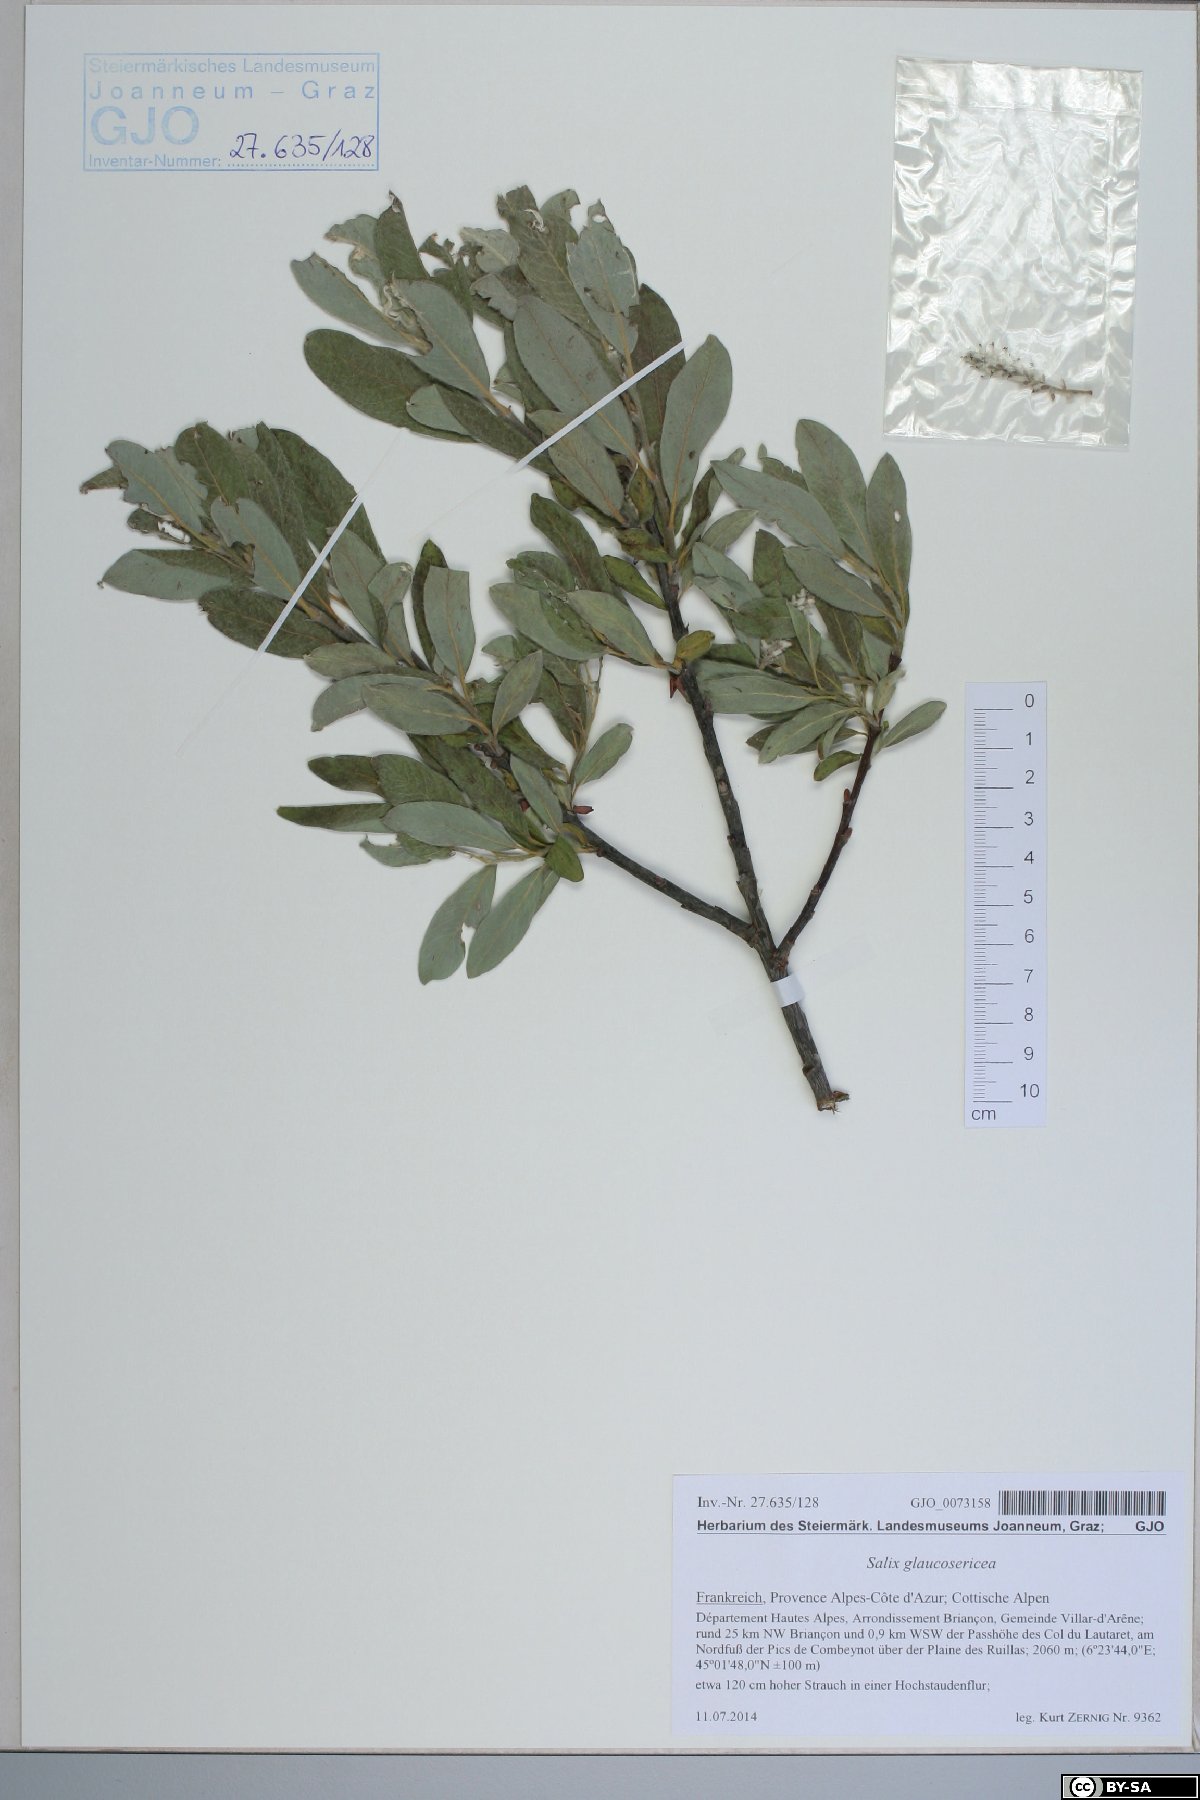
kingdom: Plantae
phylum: Tracheophyta
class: Magnoliopsida
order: Malpighiales
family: Salicaceae
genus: Salix
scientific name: Salix glaucosericea
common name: Alpine gray willow
